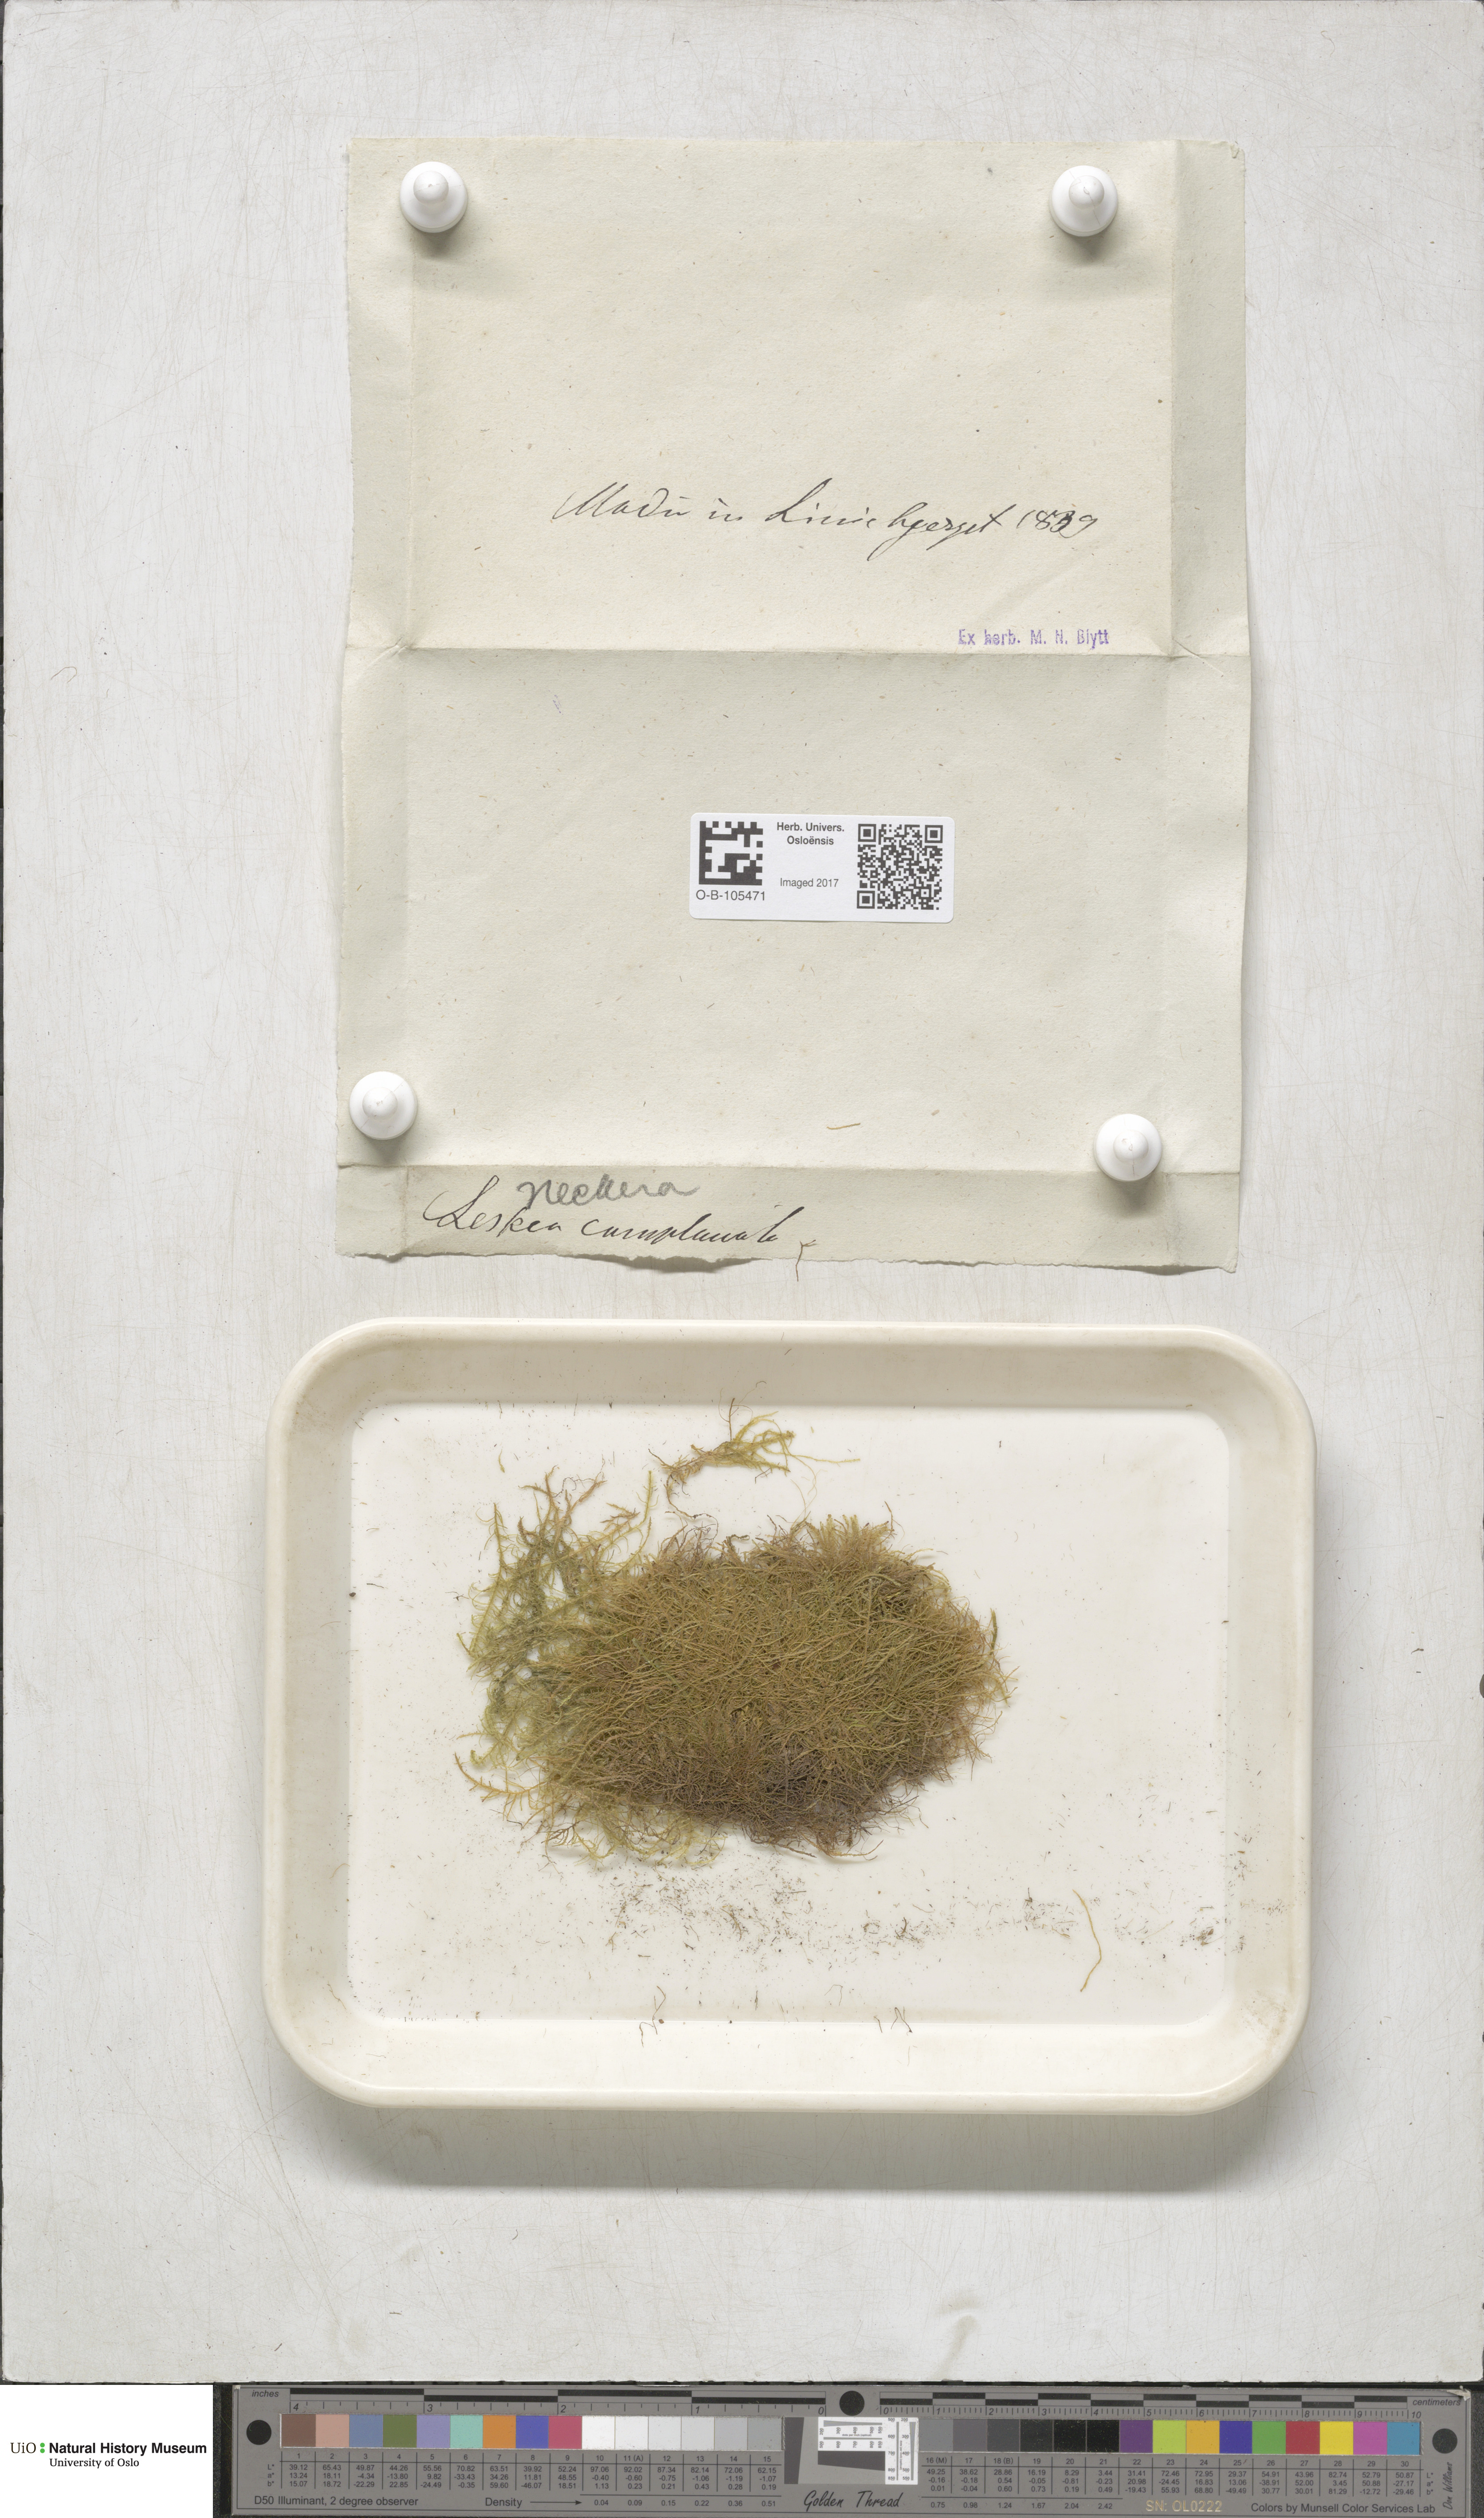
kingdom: Plantae
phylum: Bryophyta
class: Bryopsida
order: Hypnales
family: Neckeraceae
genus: Alleniella
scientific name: Alleniella complanata
